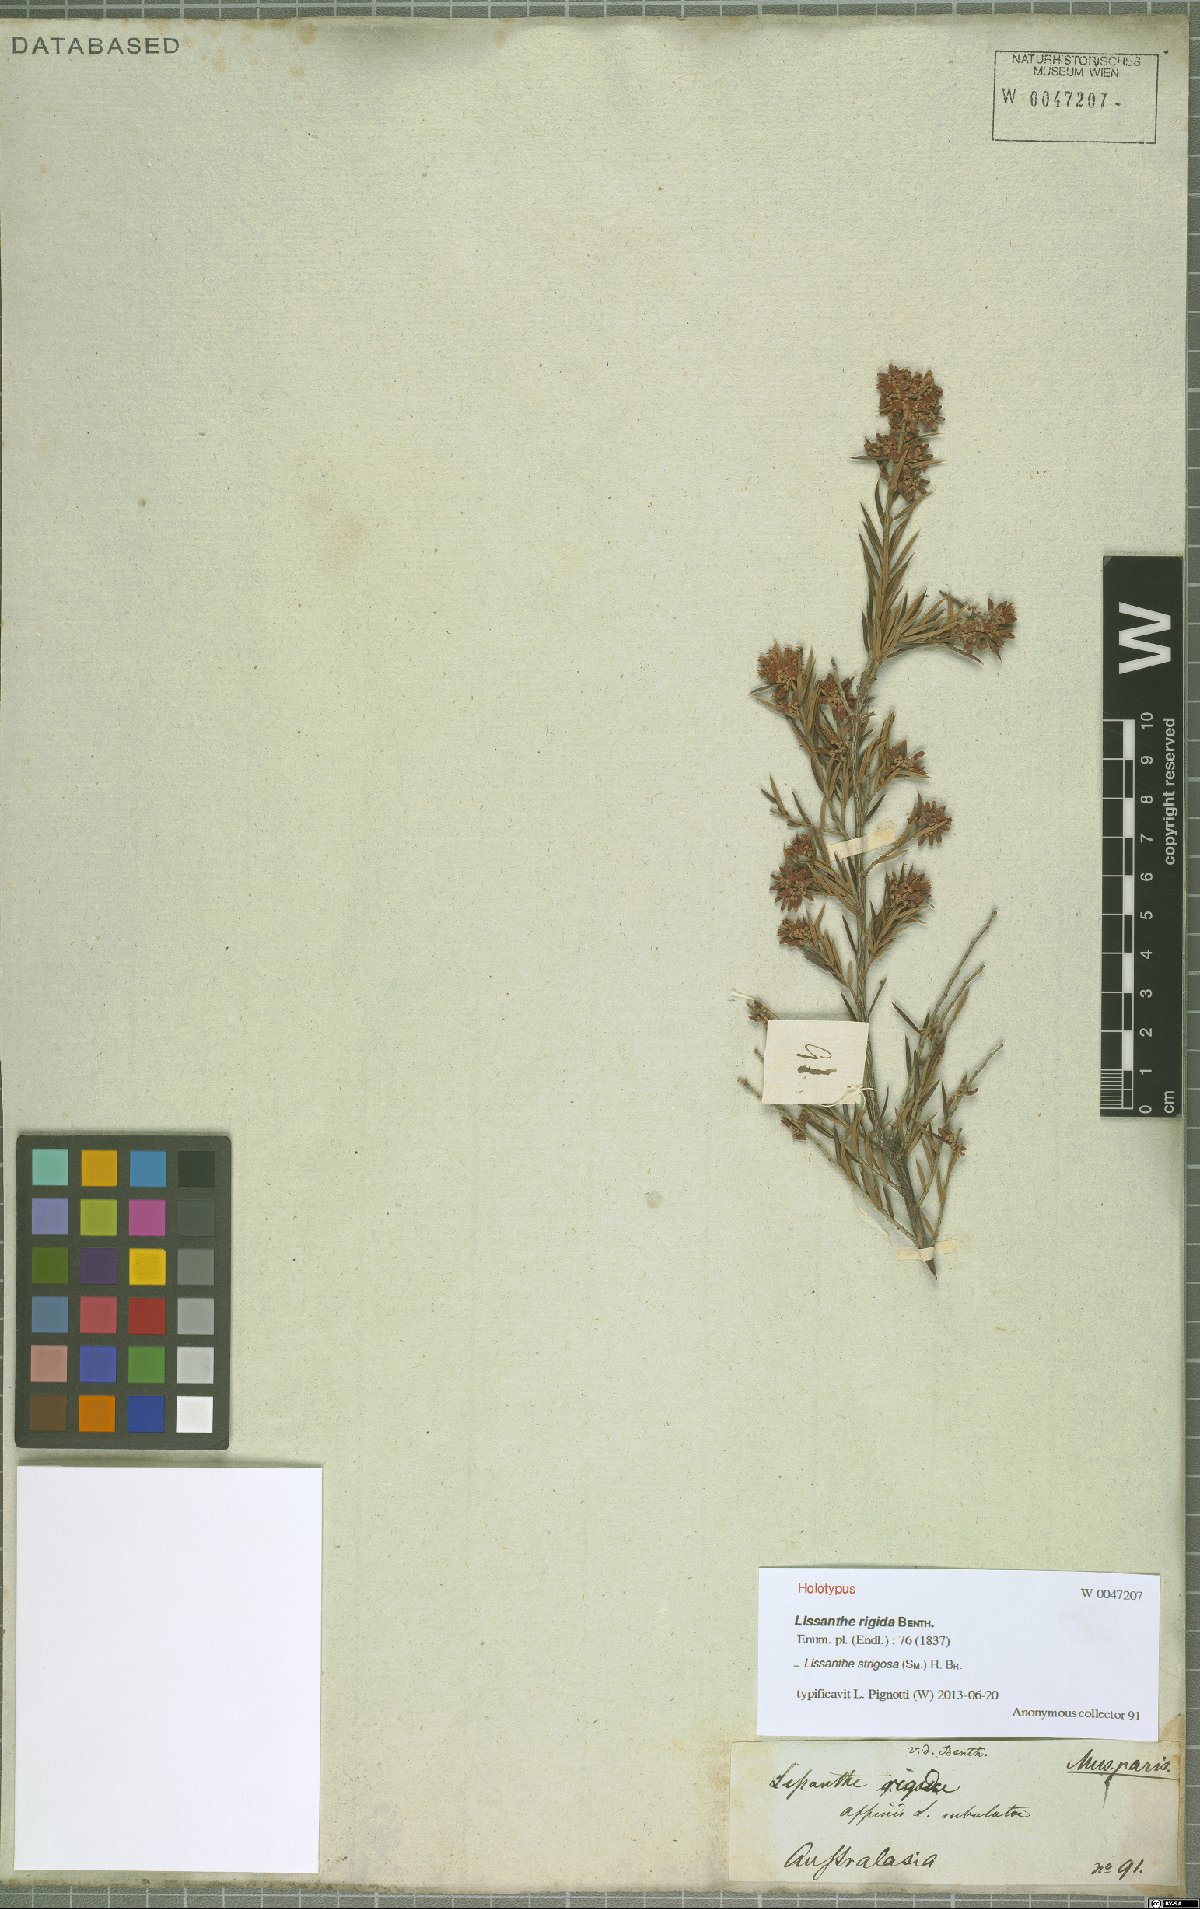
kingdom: Plantae
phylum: Tracheophyta
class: Magnoliopsida
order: Ericales
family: Ericaceae
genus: Lissanthe
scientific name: Lissanthe strigosa
